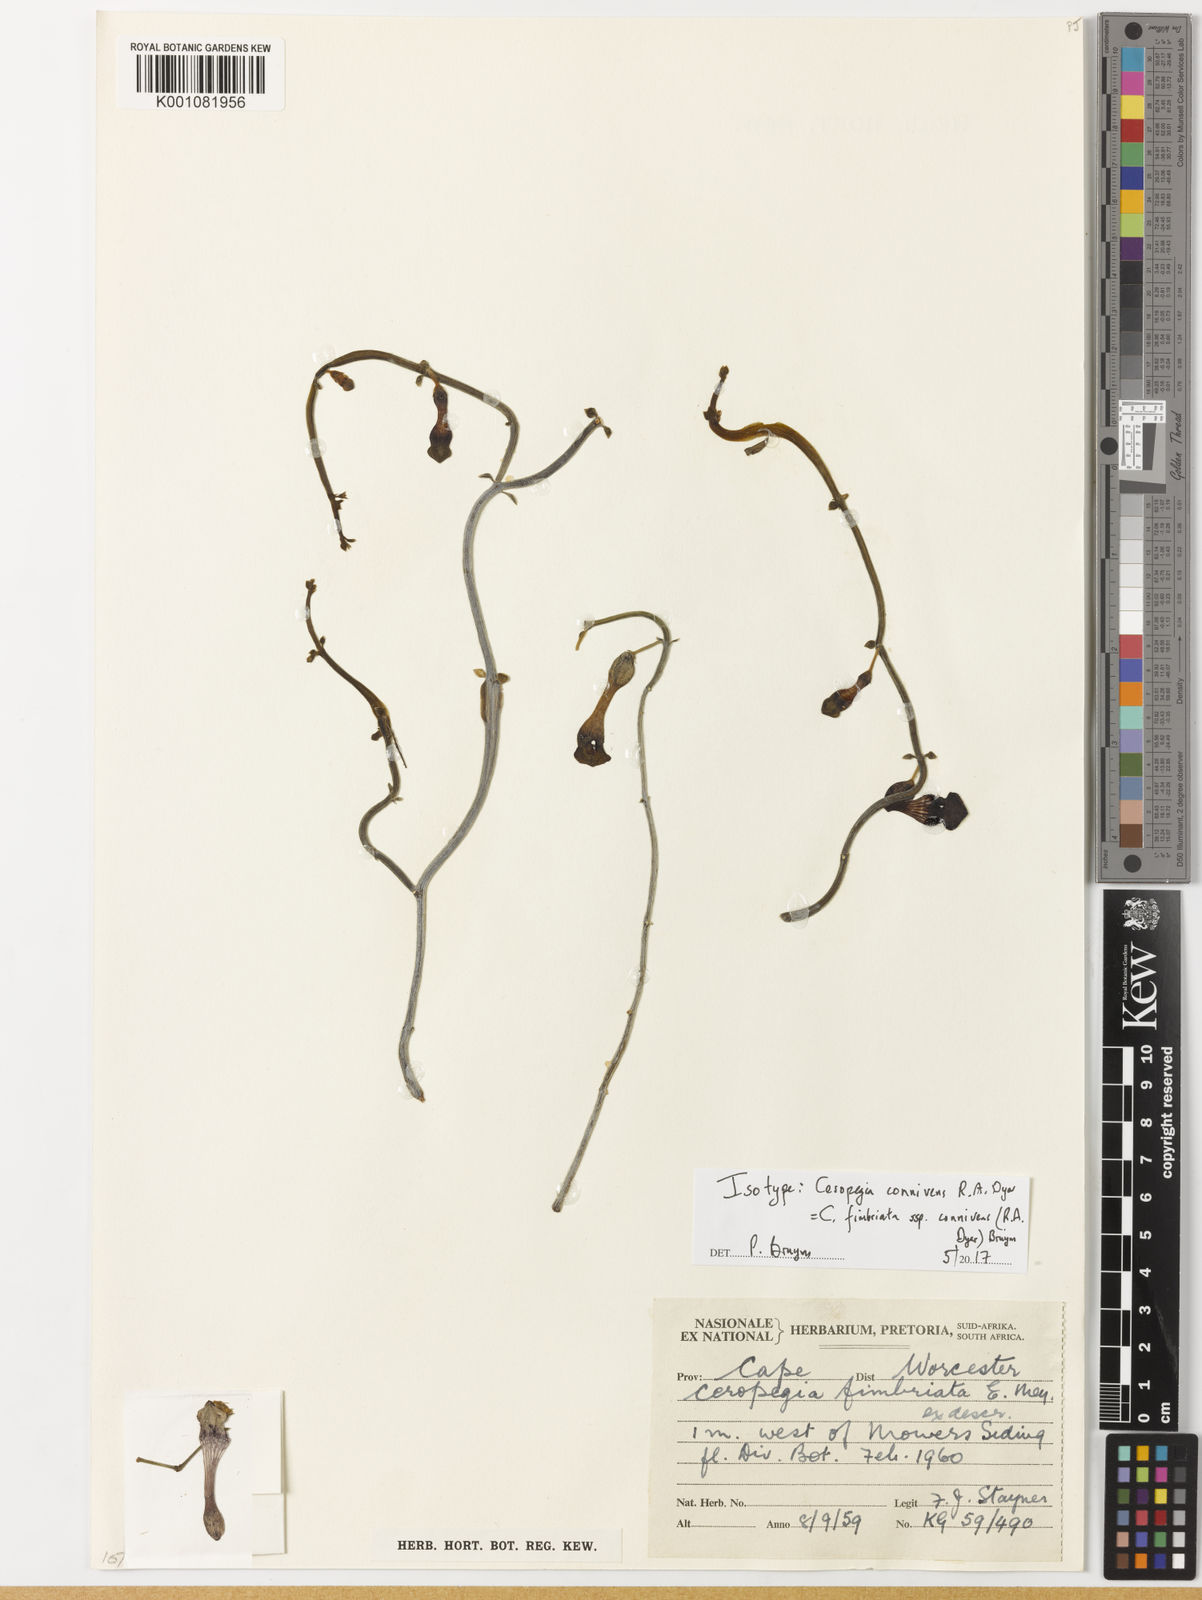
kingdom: Plantae
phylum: Tracheophyta
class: Magnoliopsida
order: Gentianales
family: Apocynaceae
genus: Ceropegia
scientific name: Ceropegia fimbriata
